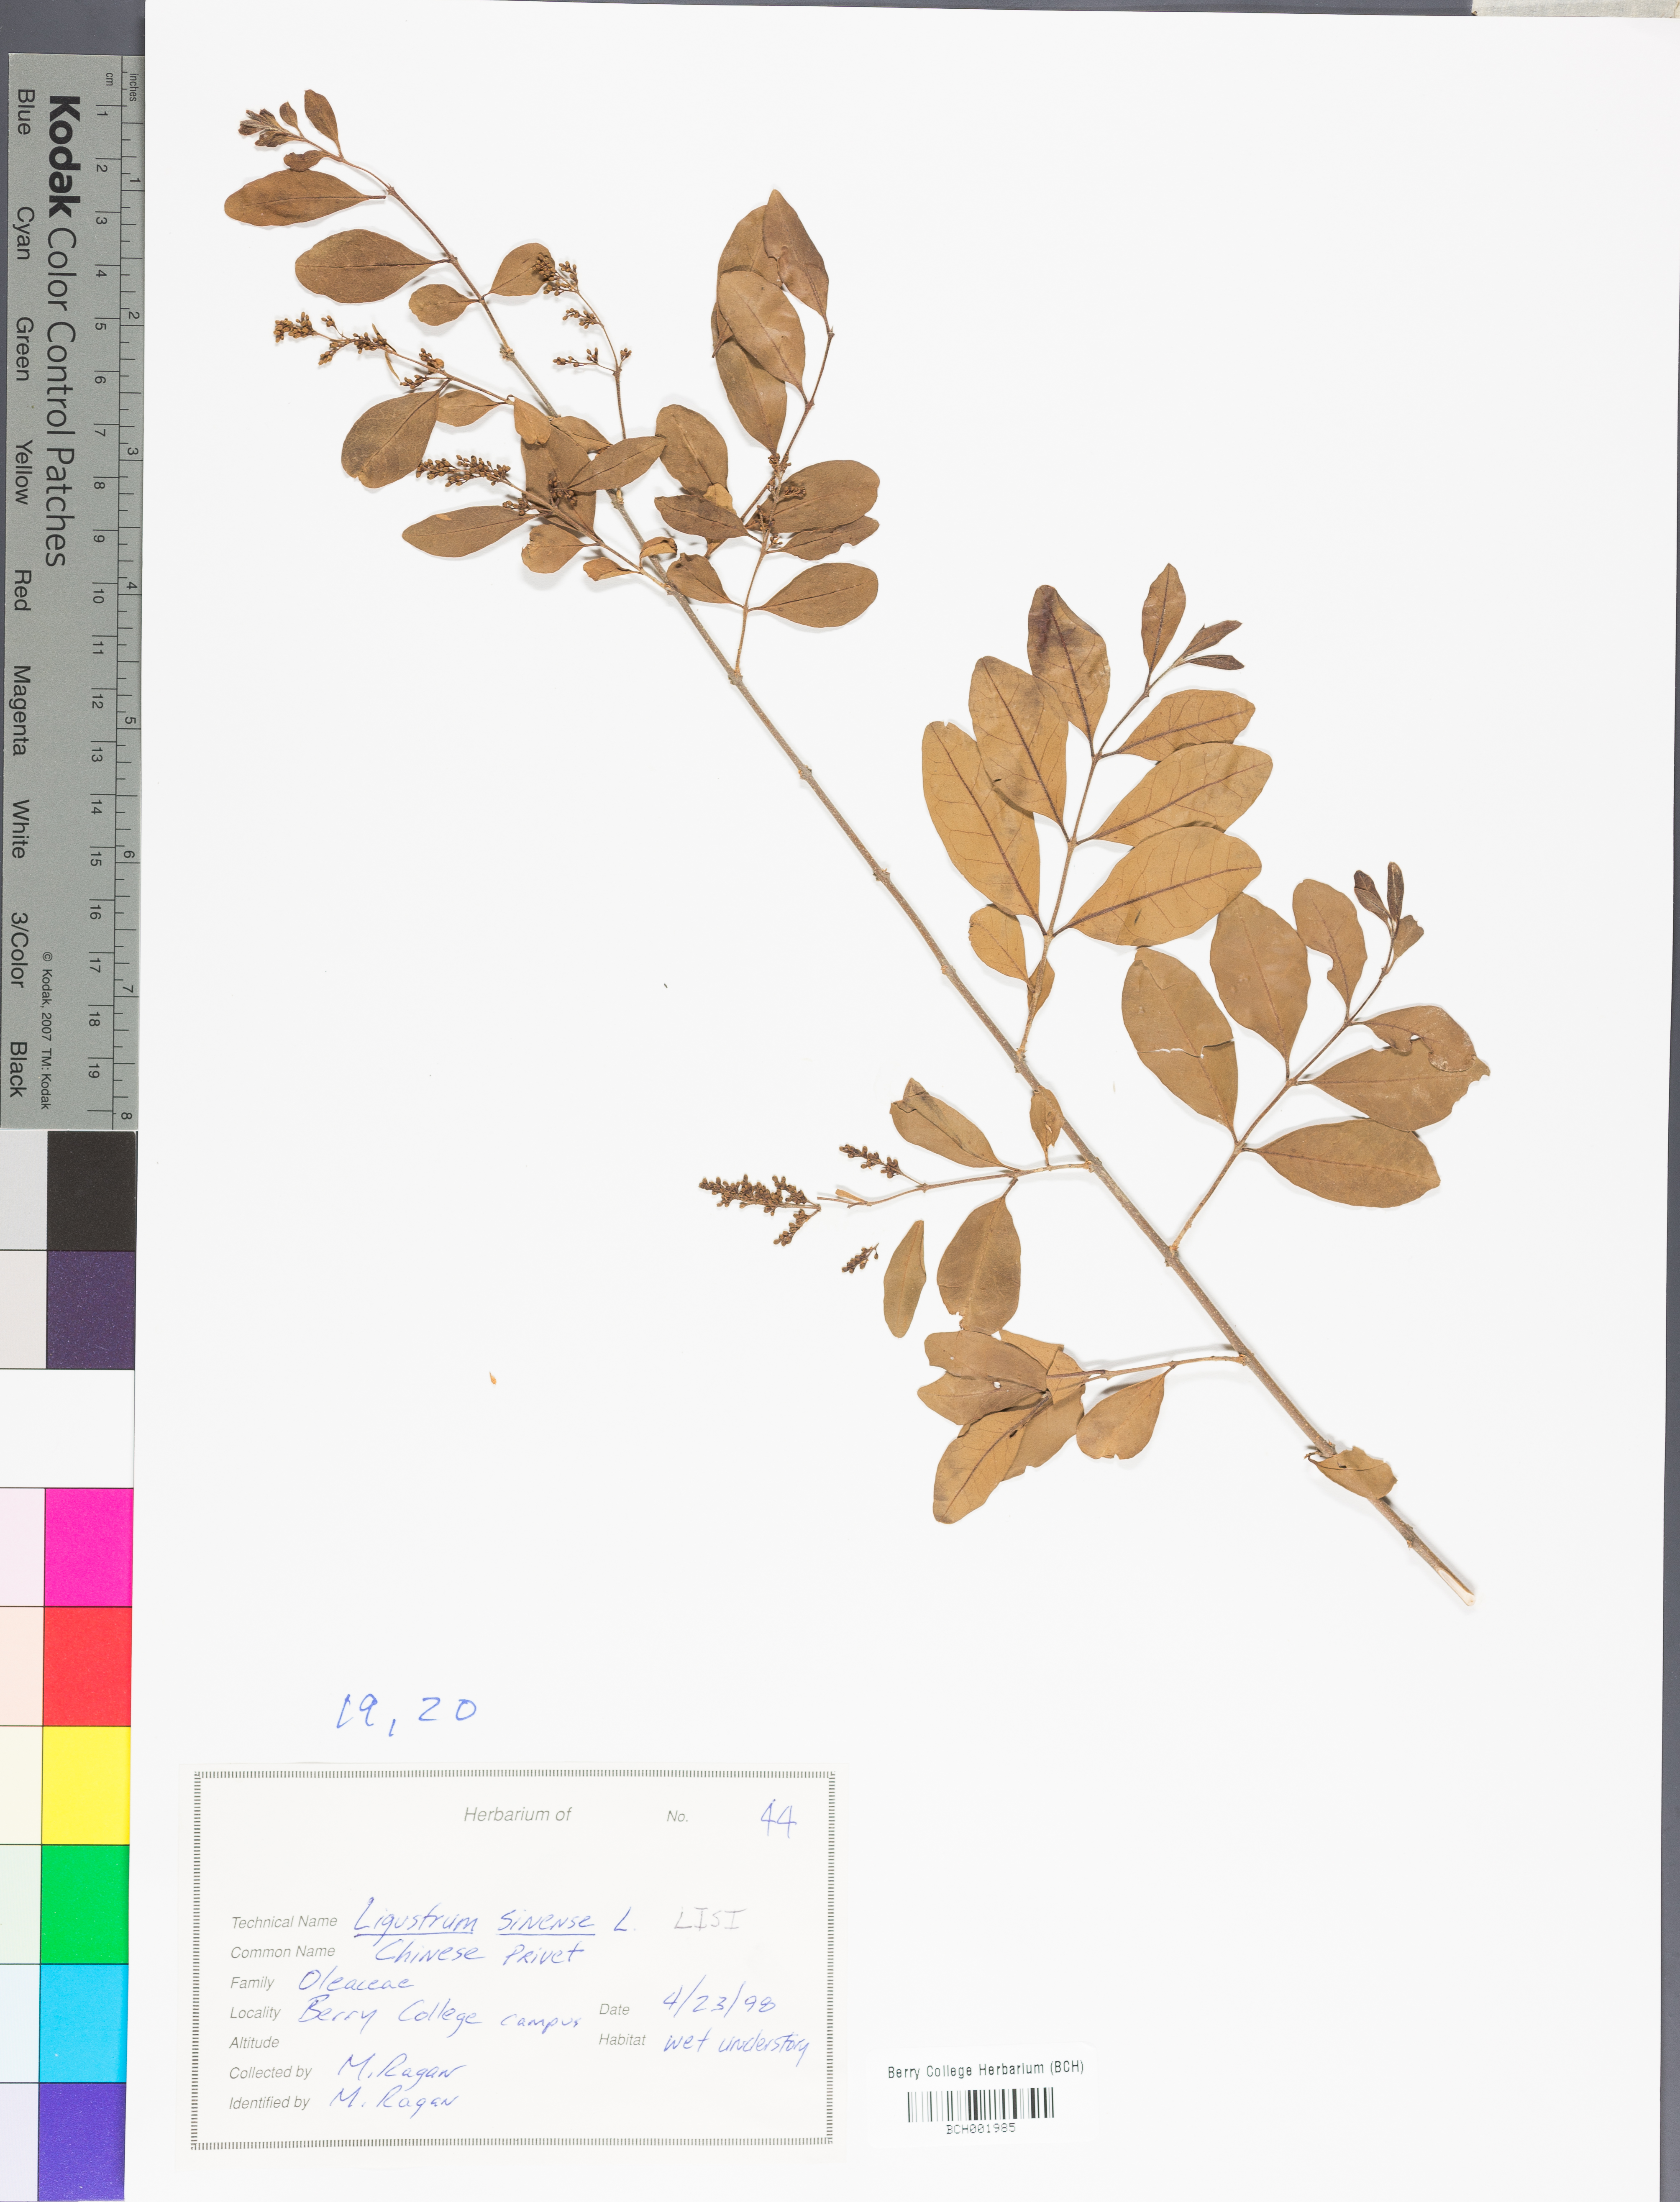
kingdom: Plantae
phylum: Tracheophyta
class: Magnoliopsida
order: Lamiales
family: Oleaceae
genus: Ligustrum
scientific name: Ligustrum sinense
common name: Chinese privet
